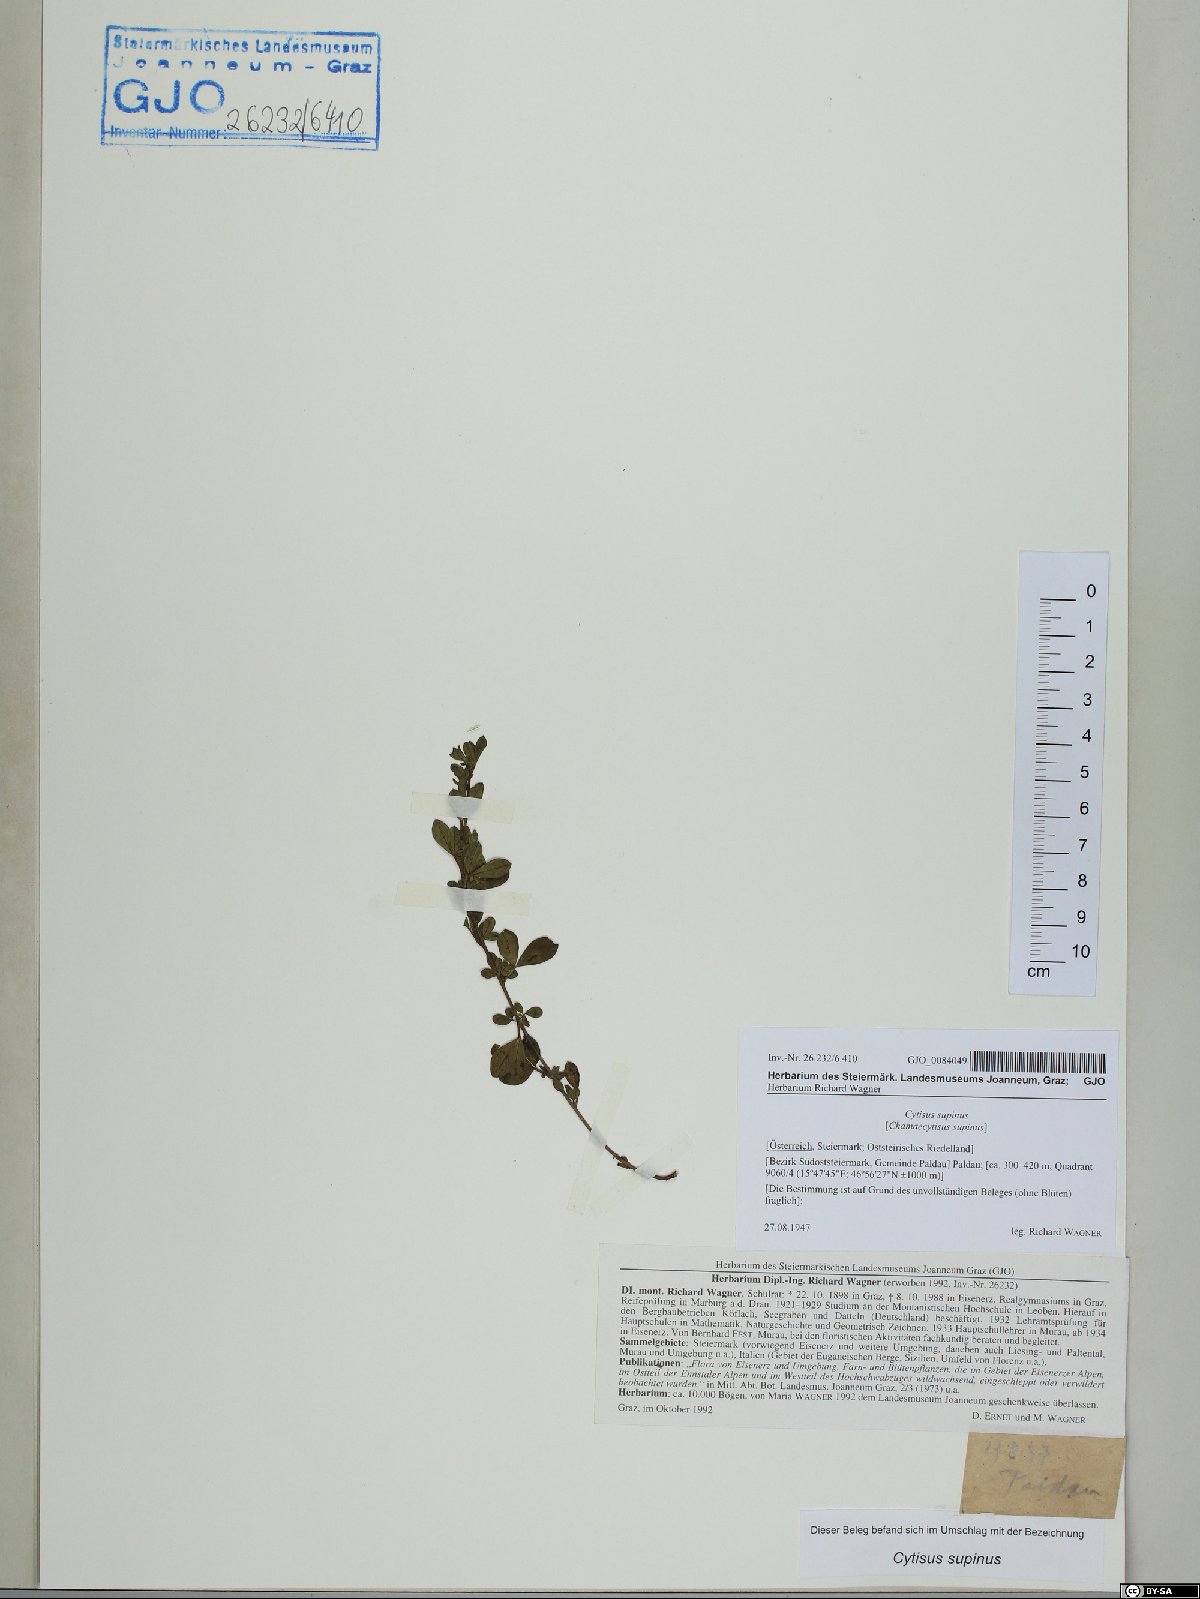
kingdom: Plantae
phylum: Tracheophyta
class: Magnoliopsida
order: Fabales
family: Fabaceae
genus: Chamaecytisus
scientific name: Chamaecytisus supinus
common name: Clustered broom
